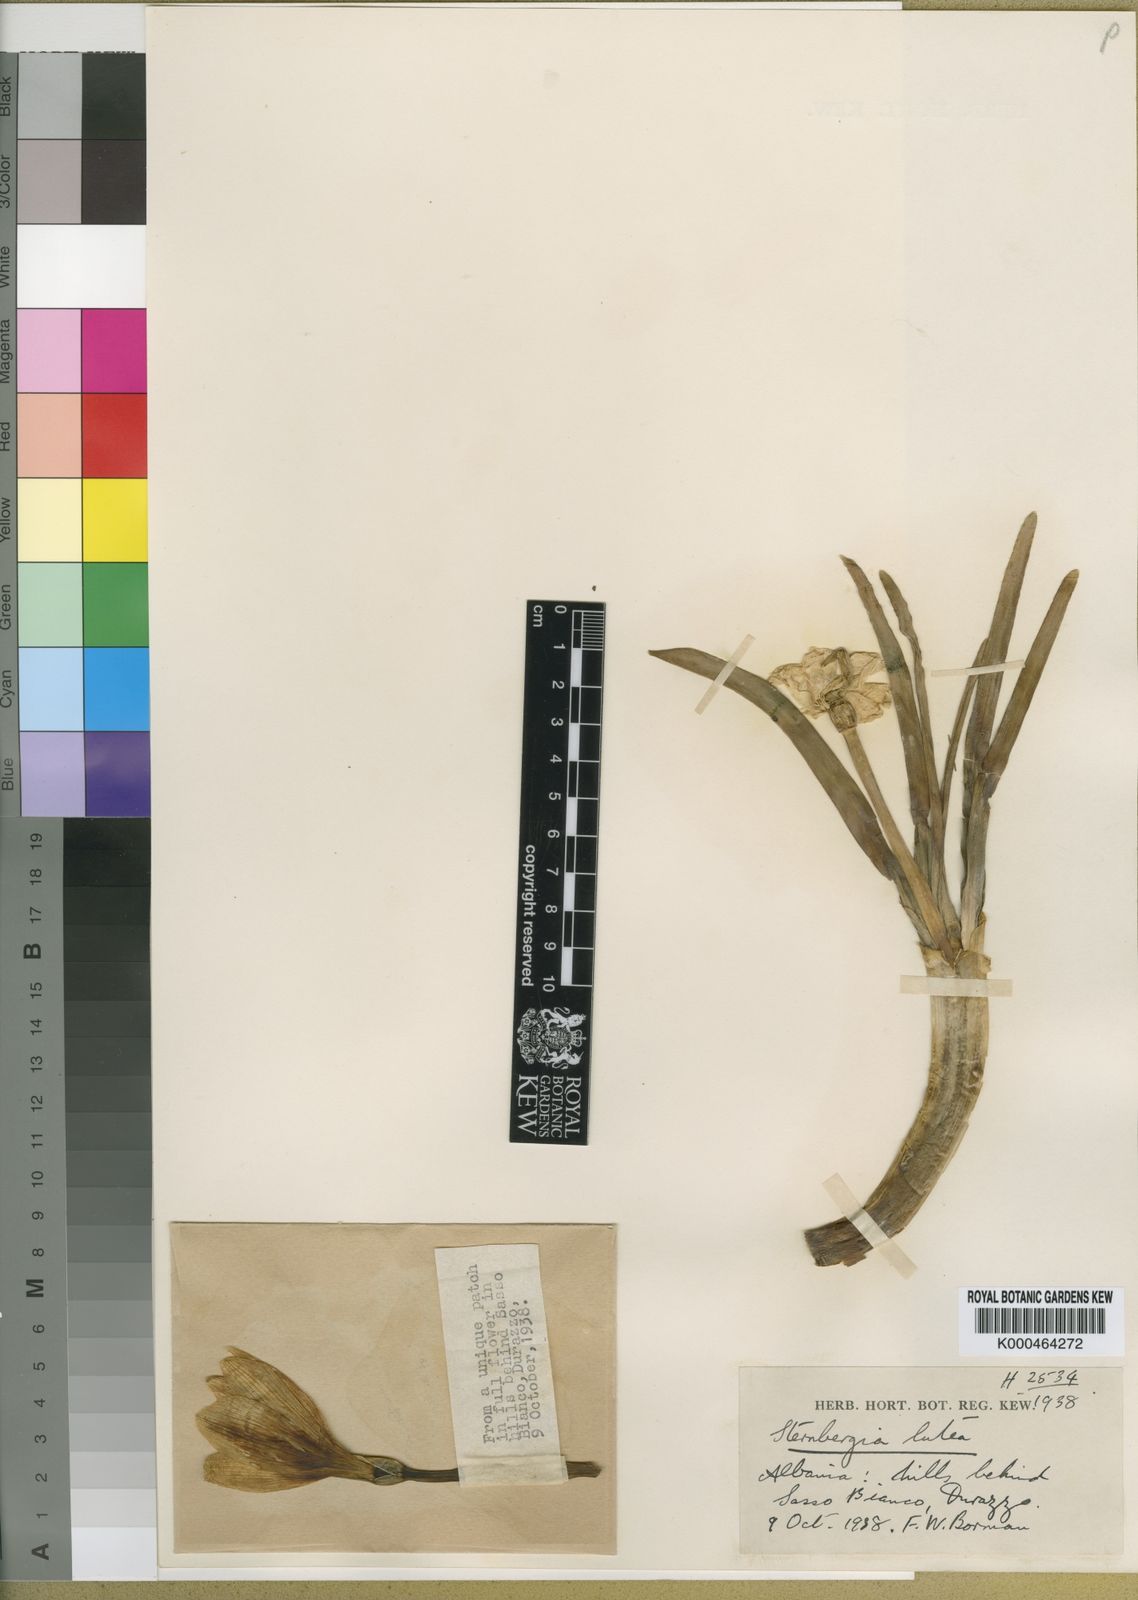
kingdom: Plantae
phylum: Tracheophyta
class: Liliopsida
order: Asparagales
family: Amaryllidaceae
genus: Sternbergia
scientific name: Sternbergia
